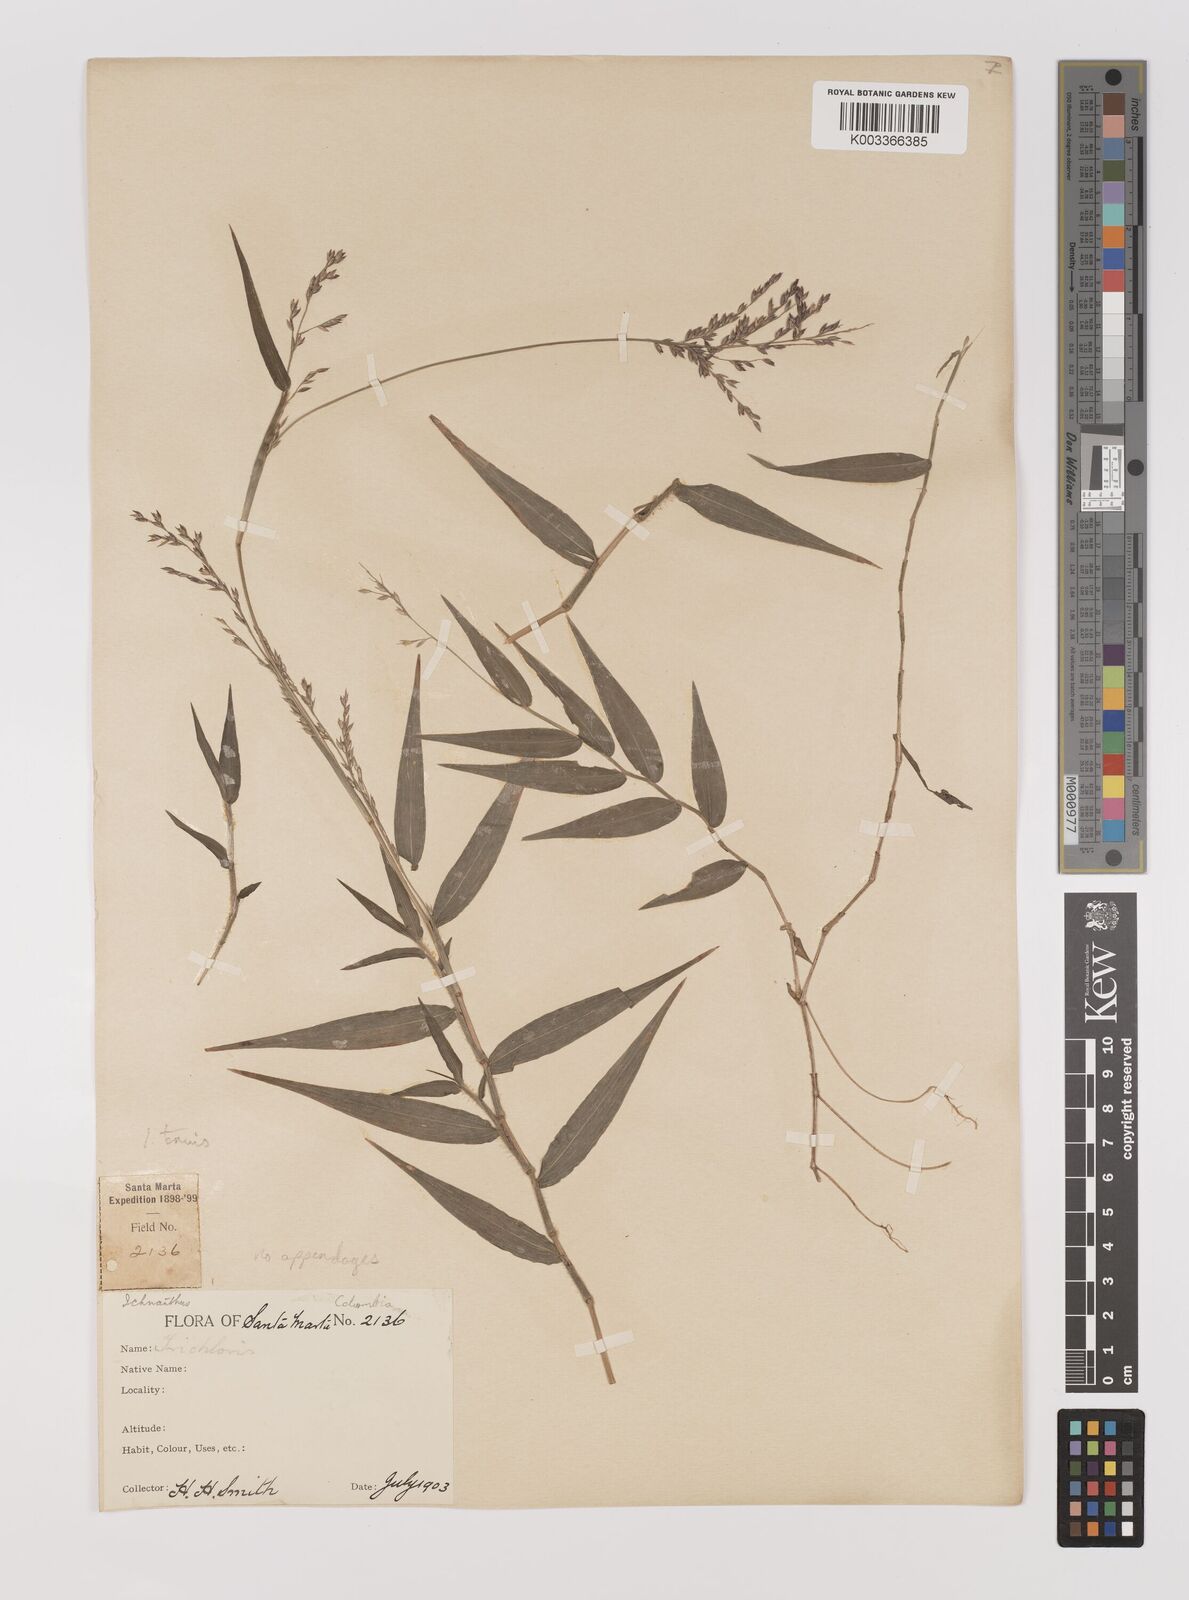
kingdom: Plantae
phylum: Tracheophyta
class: Liliopsida
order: Poales
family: Poaceae
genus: Ichnanthus
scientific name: Ichnanthus tenuis
